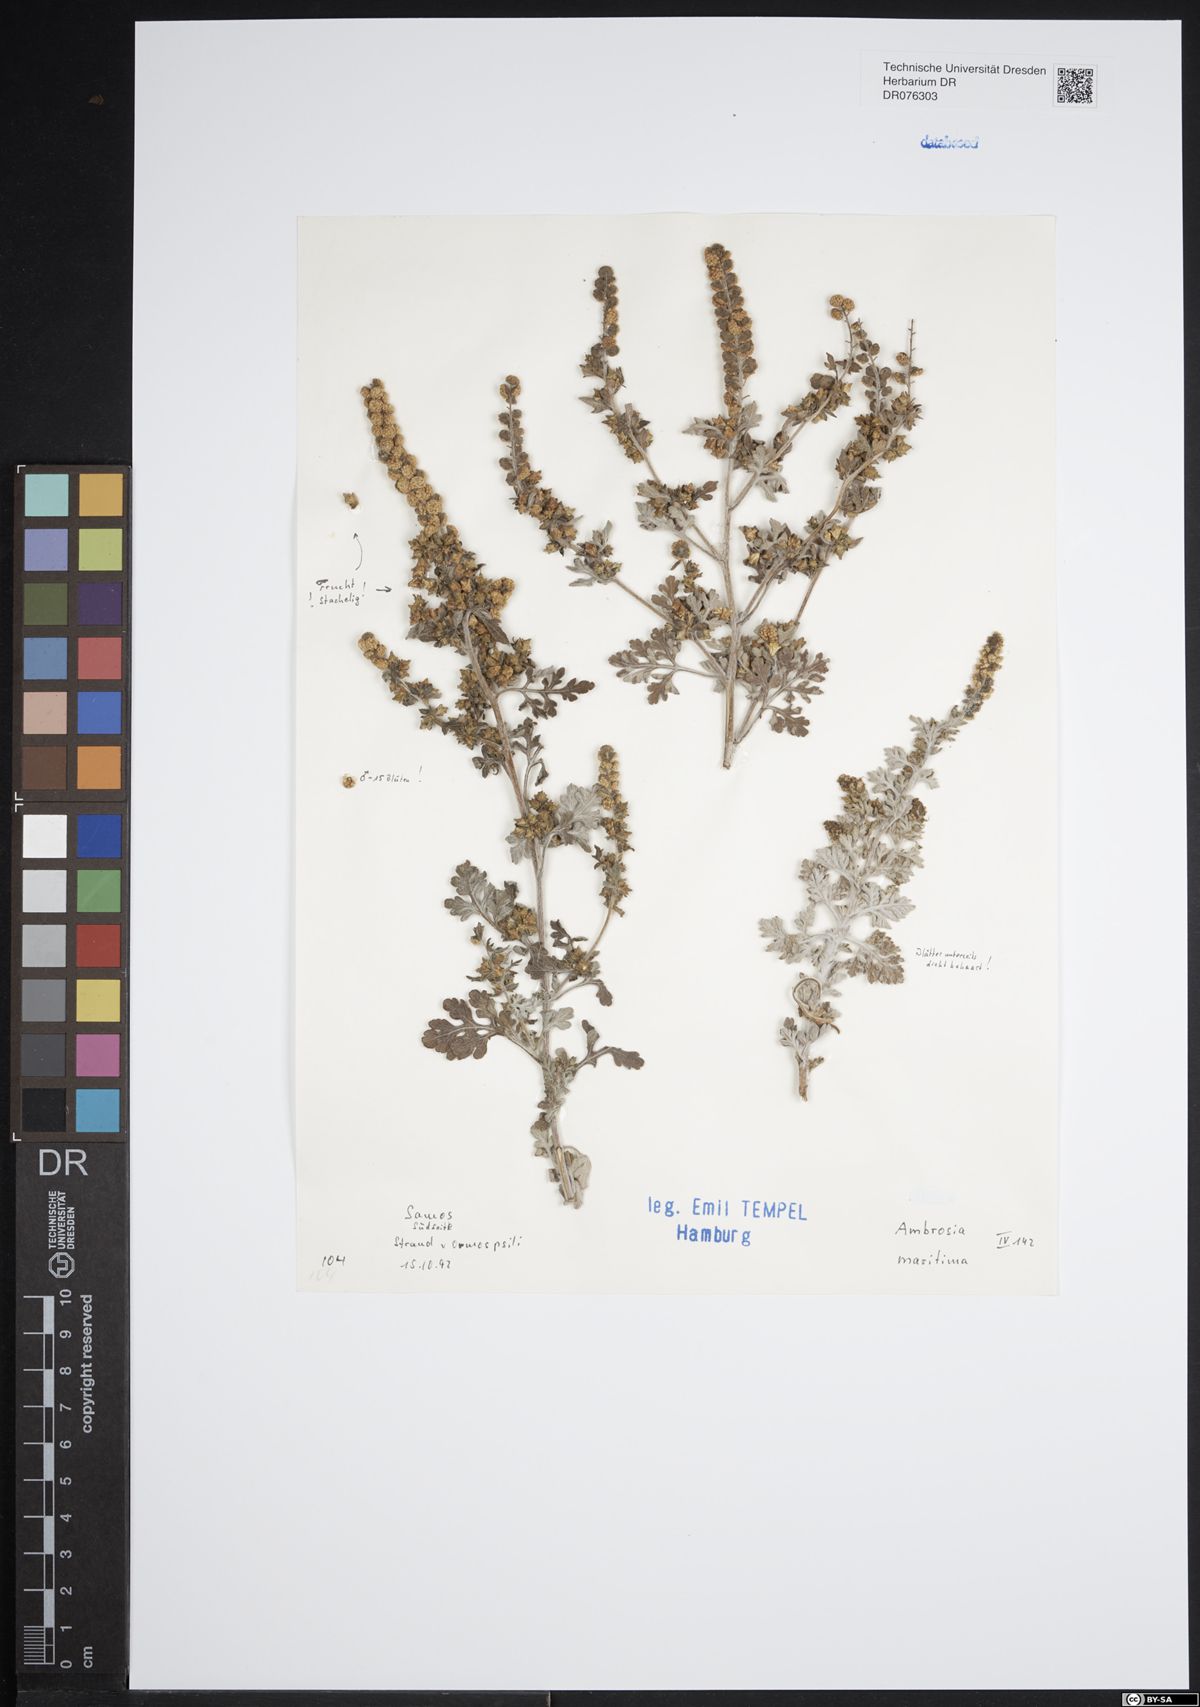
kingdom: Plantae
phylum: Tracheophyta
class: Magnoliopsida
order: Asterales
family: Asteraceae
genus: Ambrosia
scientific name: Ambrosia maritima
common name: Sea ambrosia
